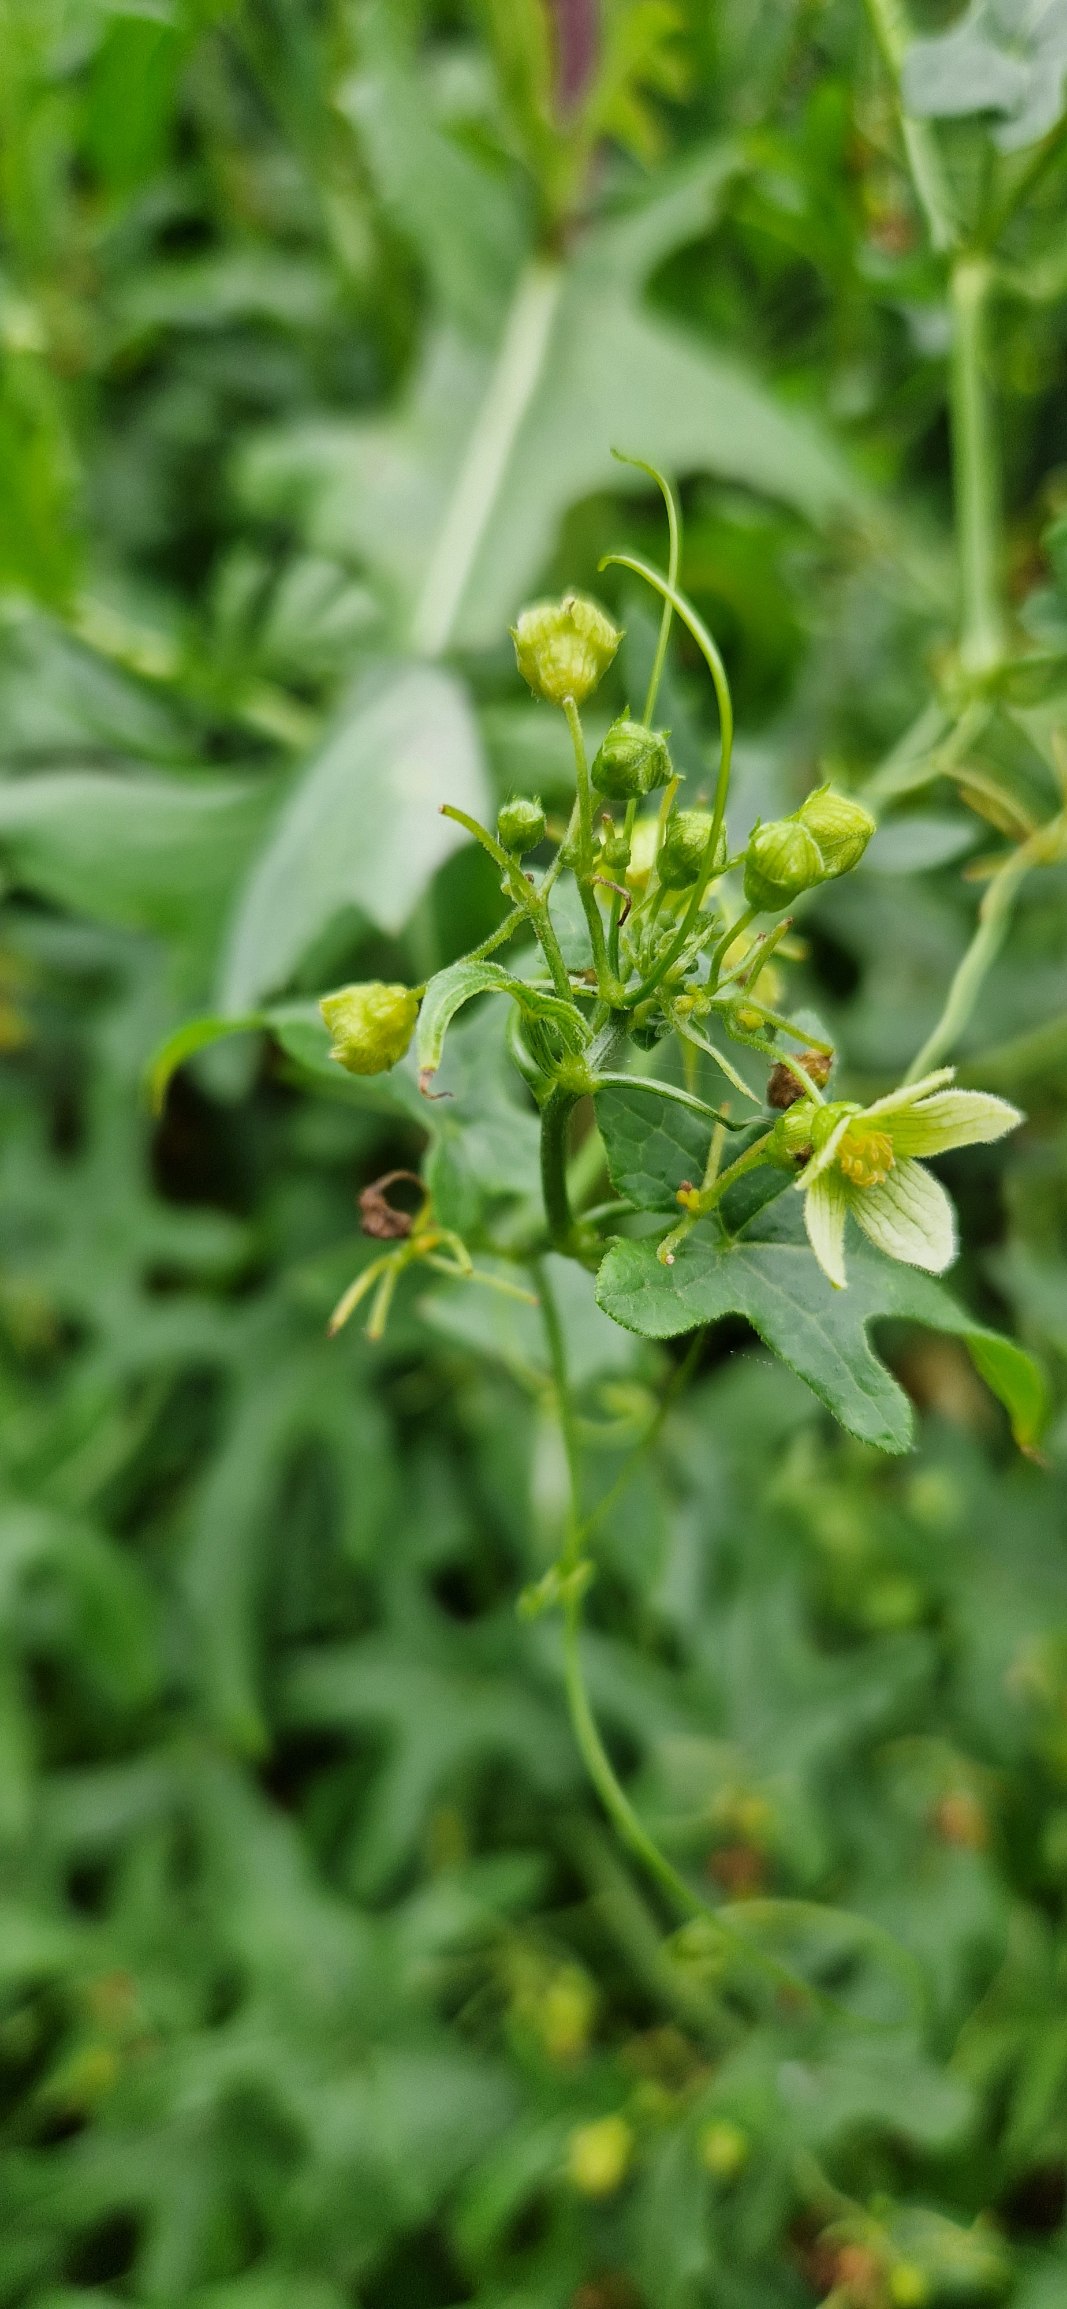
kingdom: Plantae
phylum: Tracheophyta
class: Magnoliopsida
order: Cucurbitales
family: Cucurbitaceae
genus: Bryonia
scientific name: Bryonia dioica
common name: Tvebo galdebær
